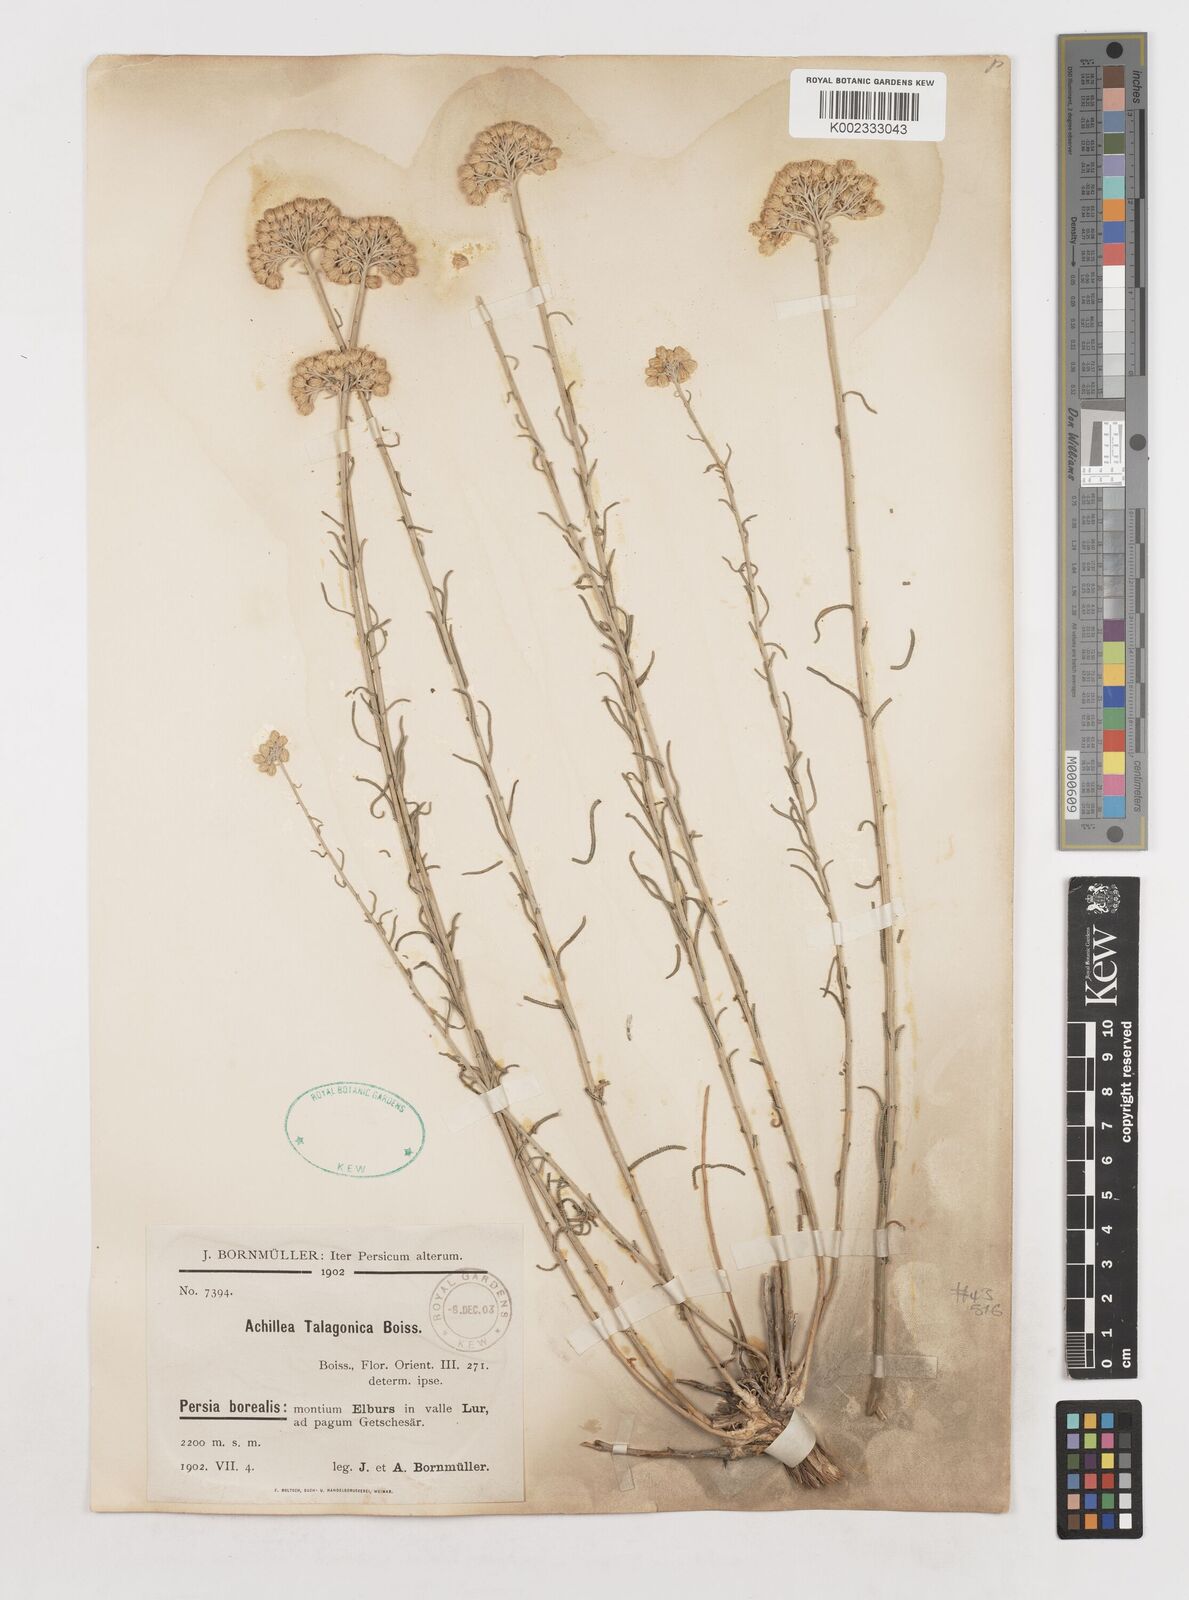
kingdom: Plantae
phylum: Tracheophyta
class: Magnoliopsida
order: Asterales
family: Asteraceae
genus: Achillea
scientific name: Achillea talagonica
